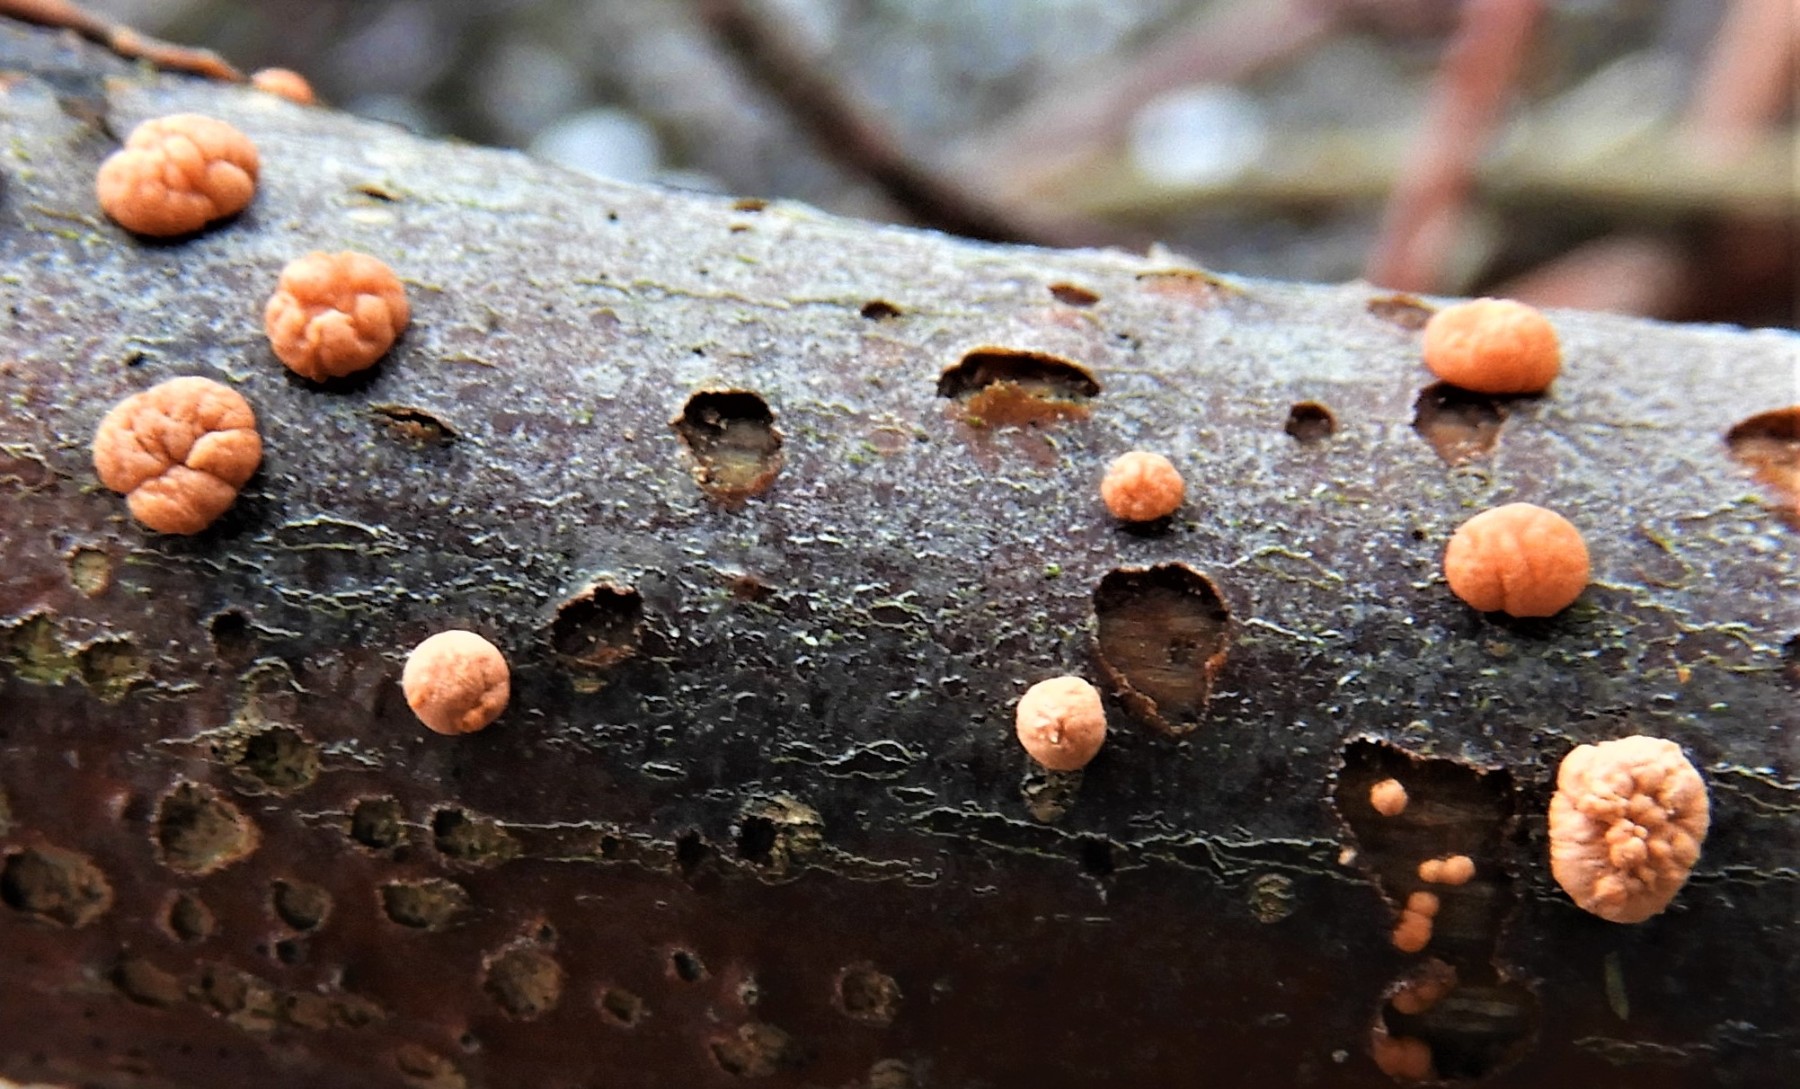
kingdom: Fungi
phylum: Ascomycota
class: Sordariomycetes
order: Hypocreales
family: Nectriaceae
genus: Nectria
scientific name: Nectria cinnabarina
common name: almindelig cinnobersvamp
